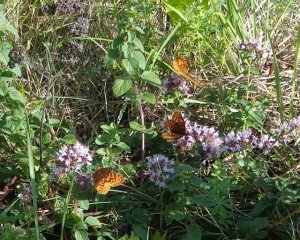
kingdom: Animalia
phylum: Arthropoda
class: Insecta
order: Lepidoptera
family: Nymphalidae
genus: Clossiana
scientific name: Clossiana toddi
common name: Meadow Fritillary
